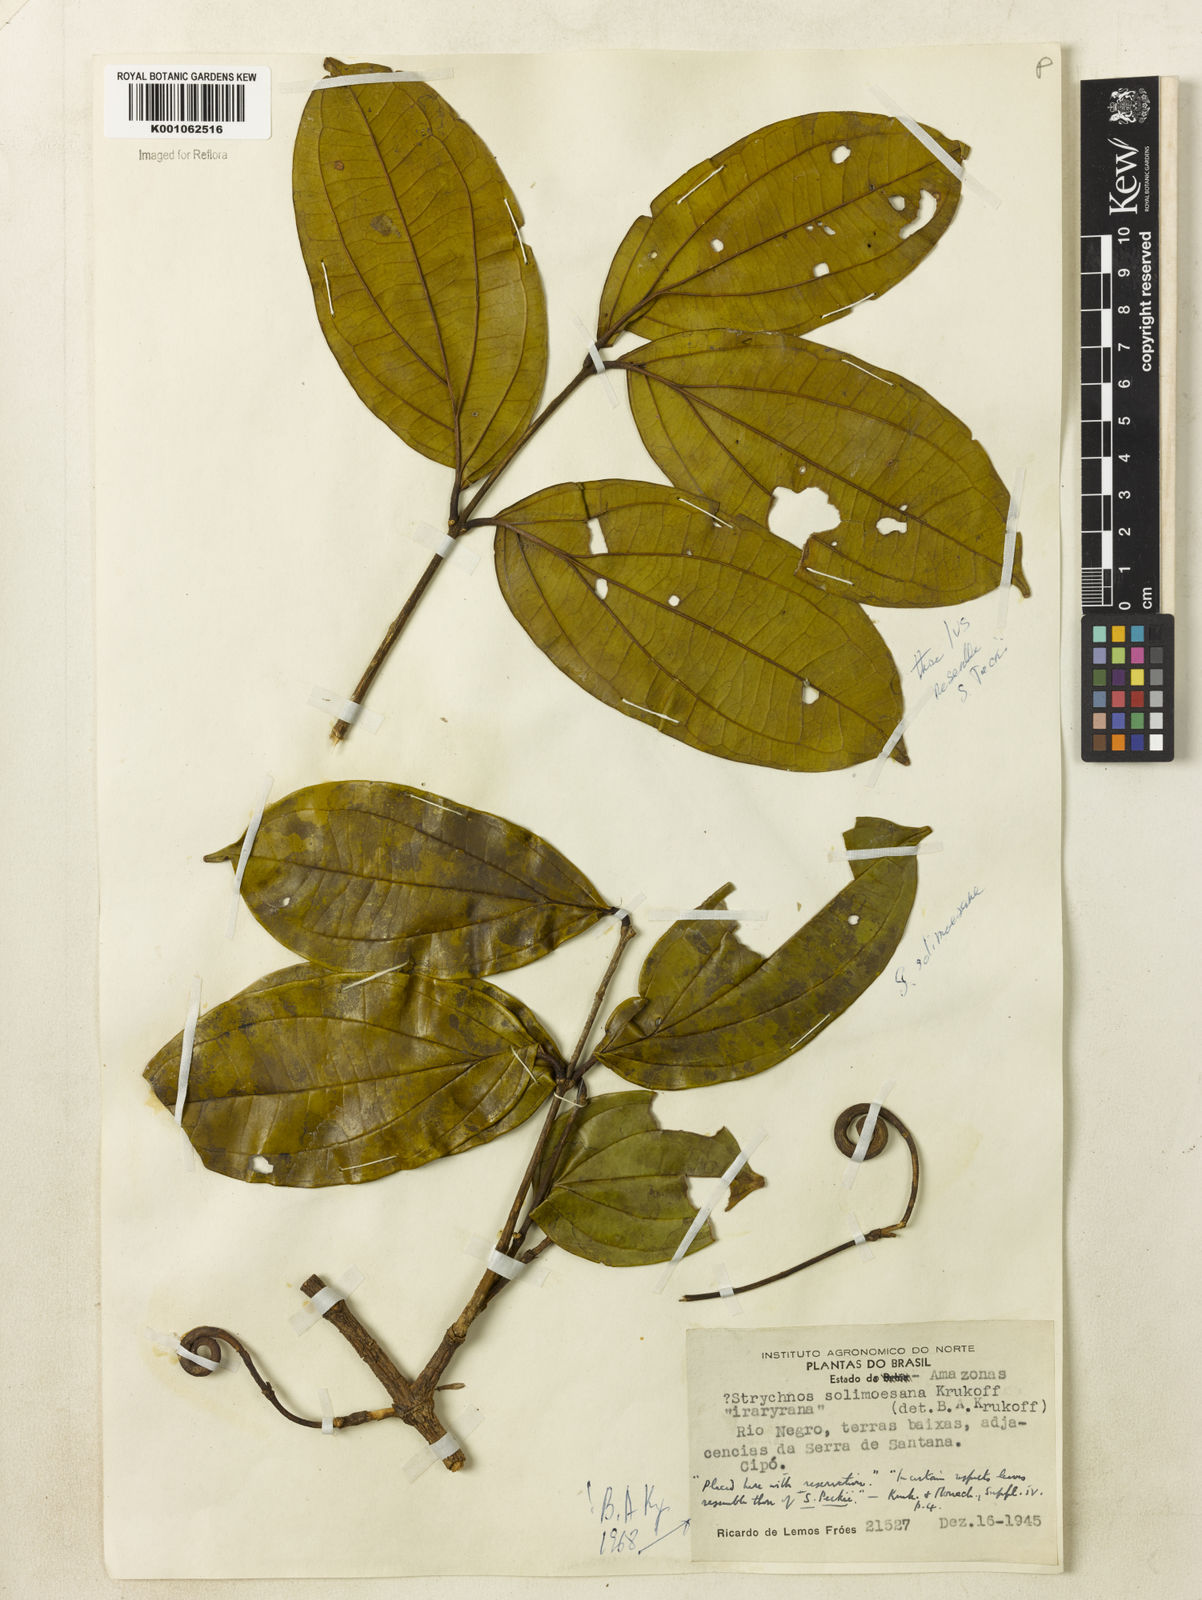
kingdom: Plantae
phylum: Tracheophyta
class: Magnoliopsida
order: Gentianales
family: Loganiaceae
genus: Strychnos
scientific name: Strychnos solimoesana
